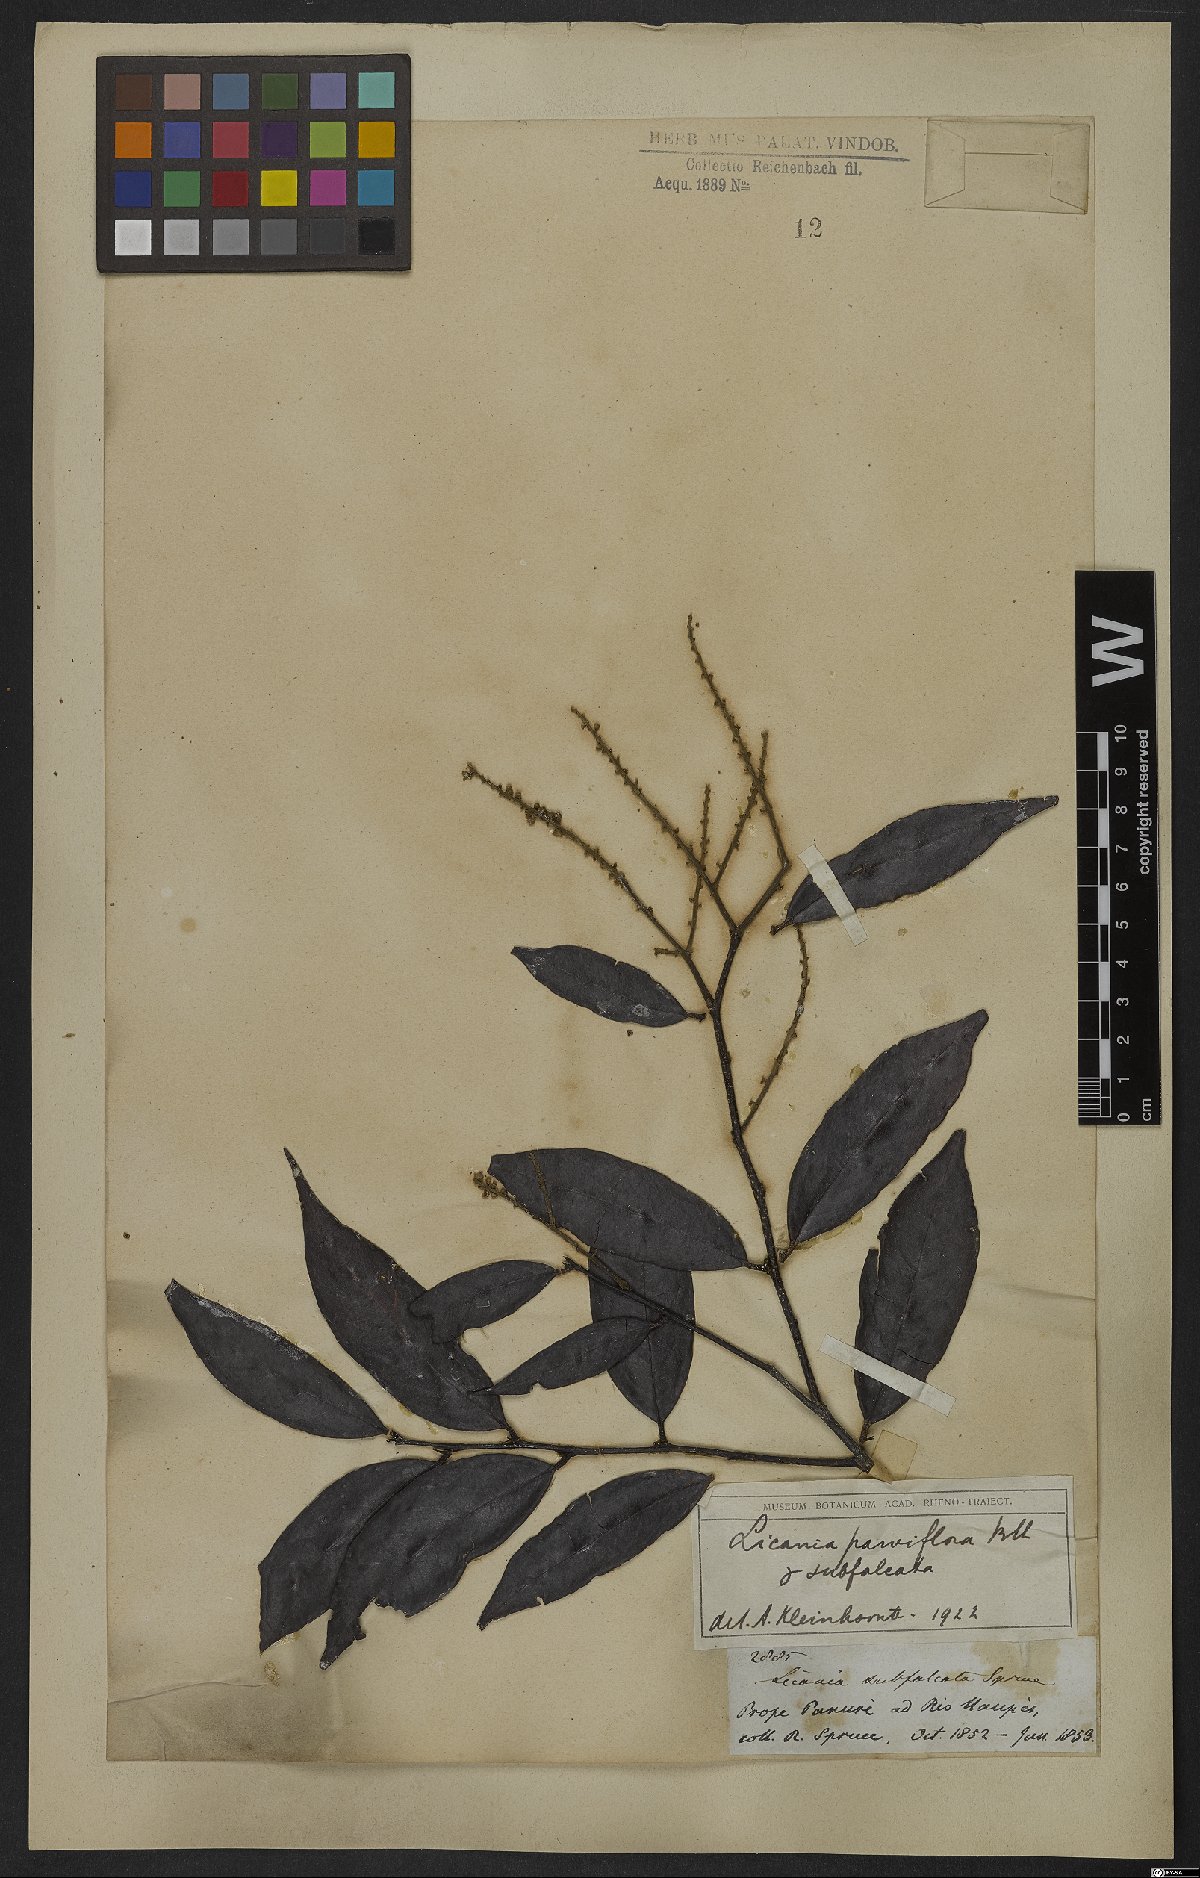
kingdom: Plantae
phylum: Tracheophyta
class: Magnoliopsida
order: Malpighiales
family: Chrysobalanaceae
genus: Leptobalanus
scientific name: Leptobalanus parviflorus
